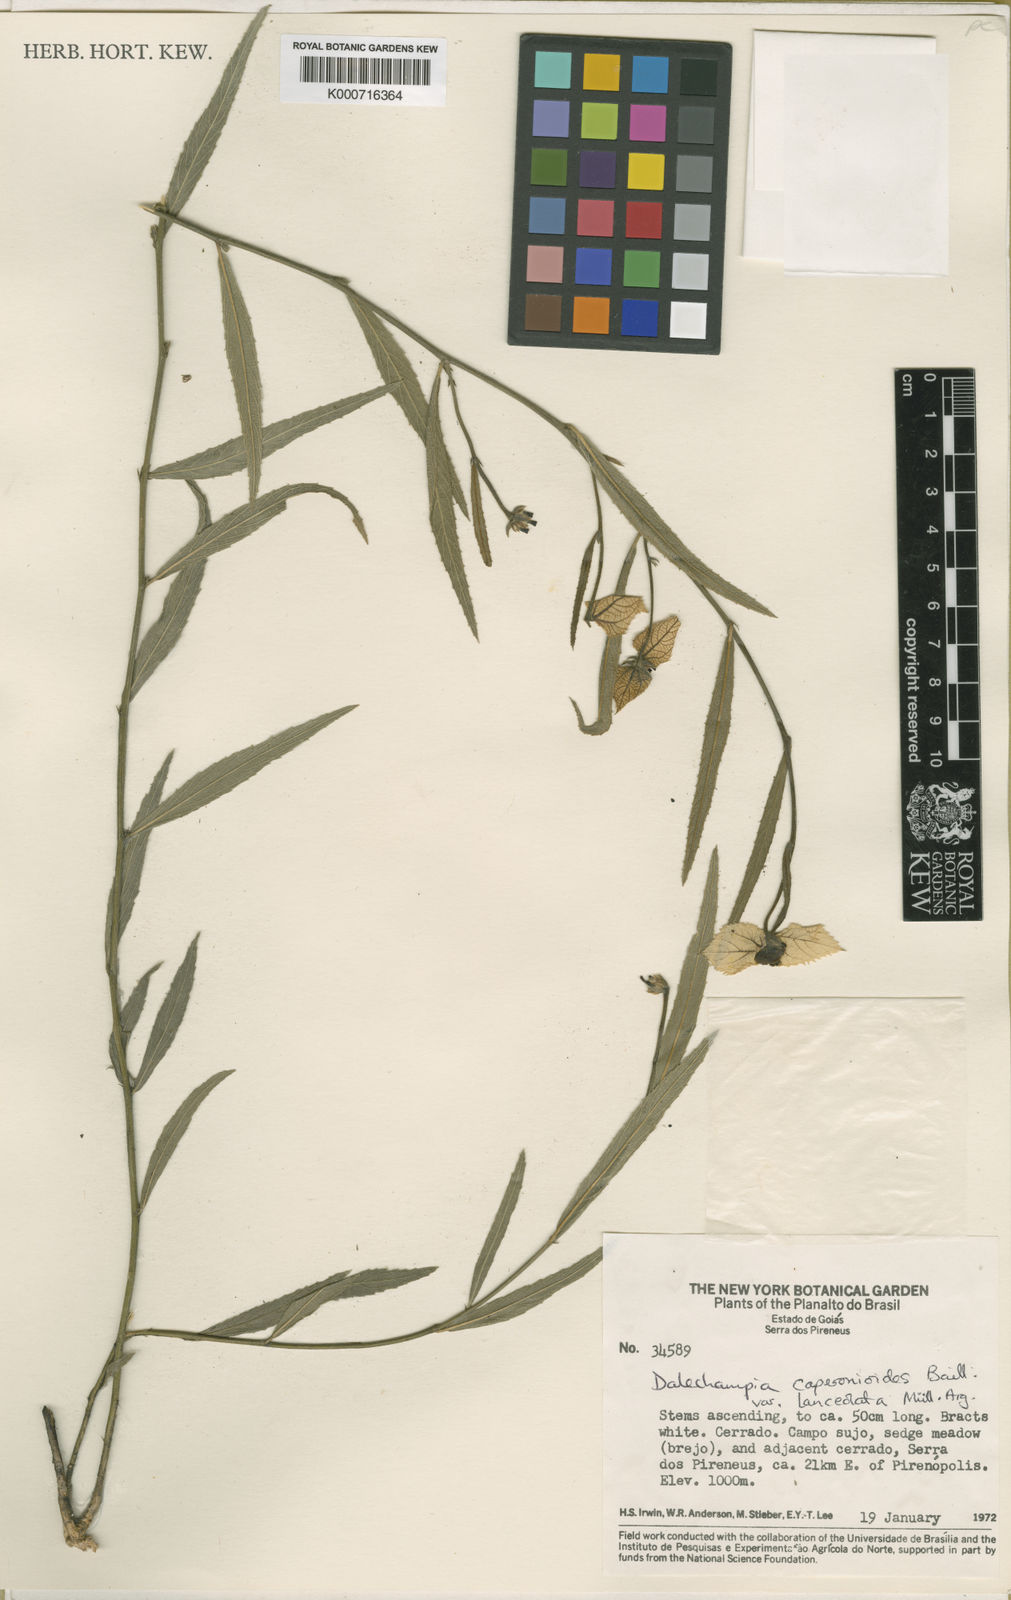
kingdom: Plantae
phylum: Tracheophyta
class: Magnoliopsida
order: Malpighiales
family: Euphorbiaceae
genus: Dalechampia
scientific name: Dalechampia caperonioides
